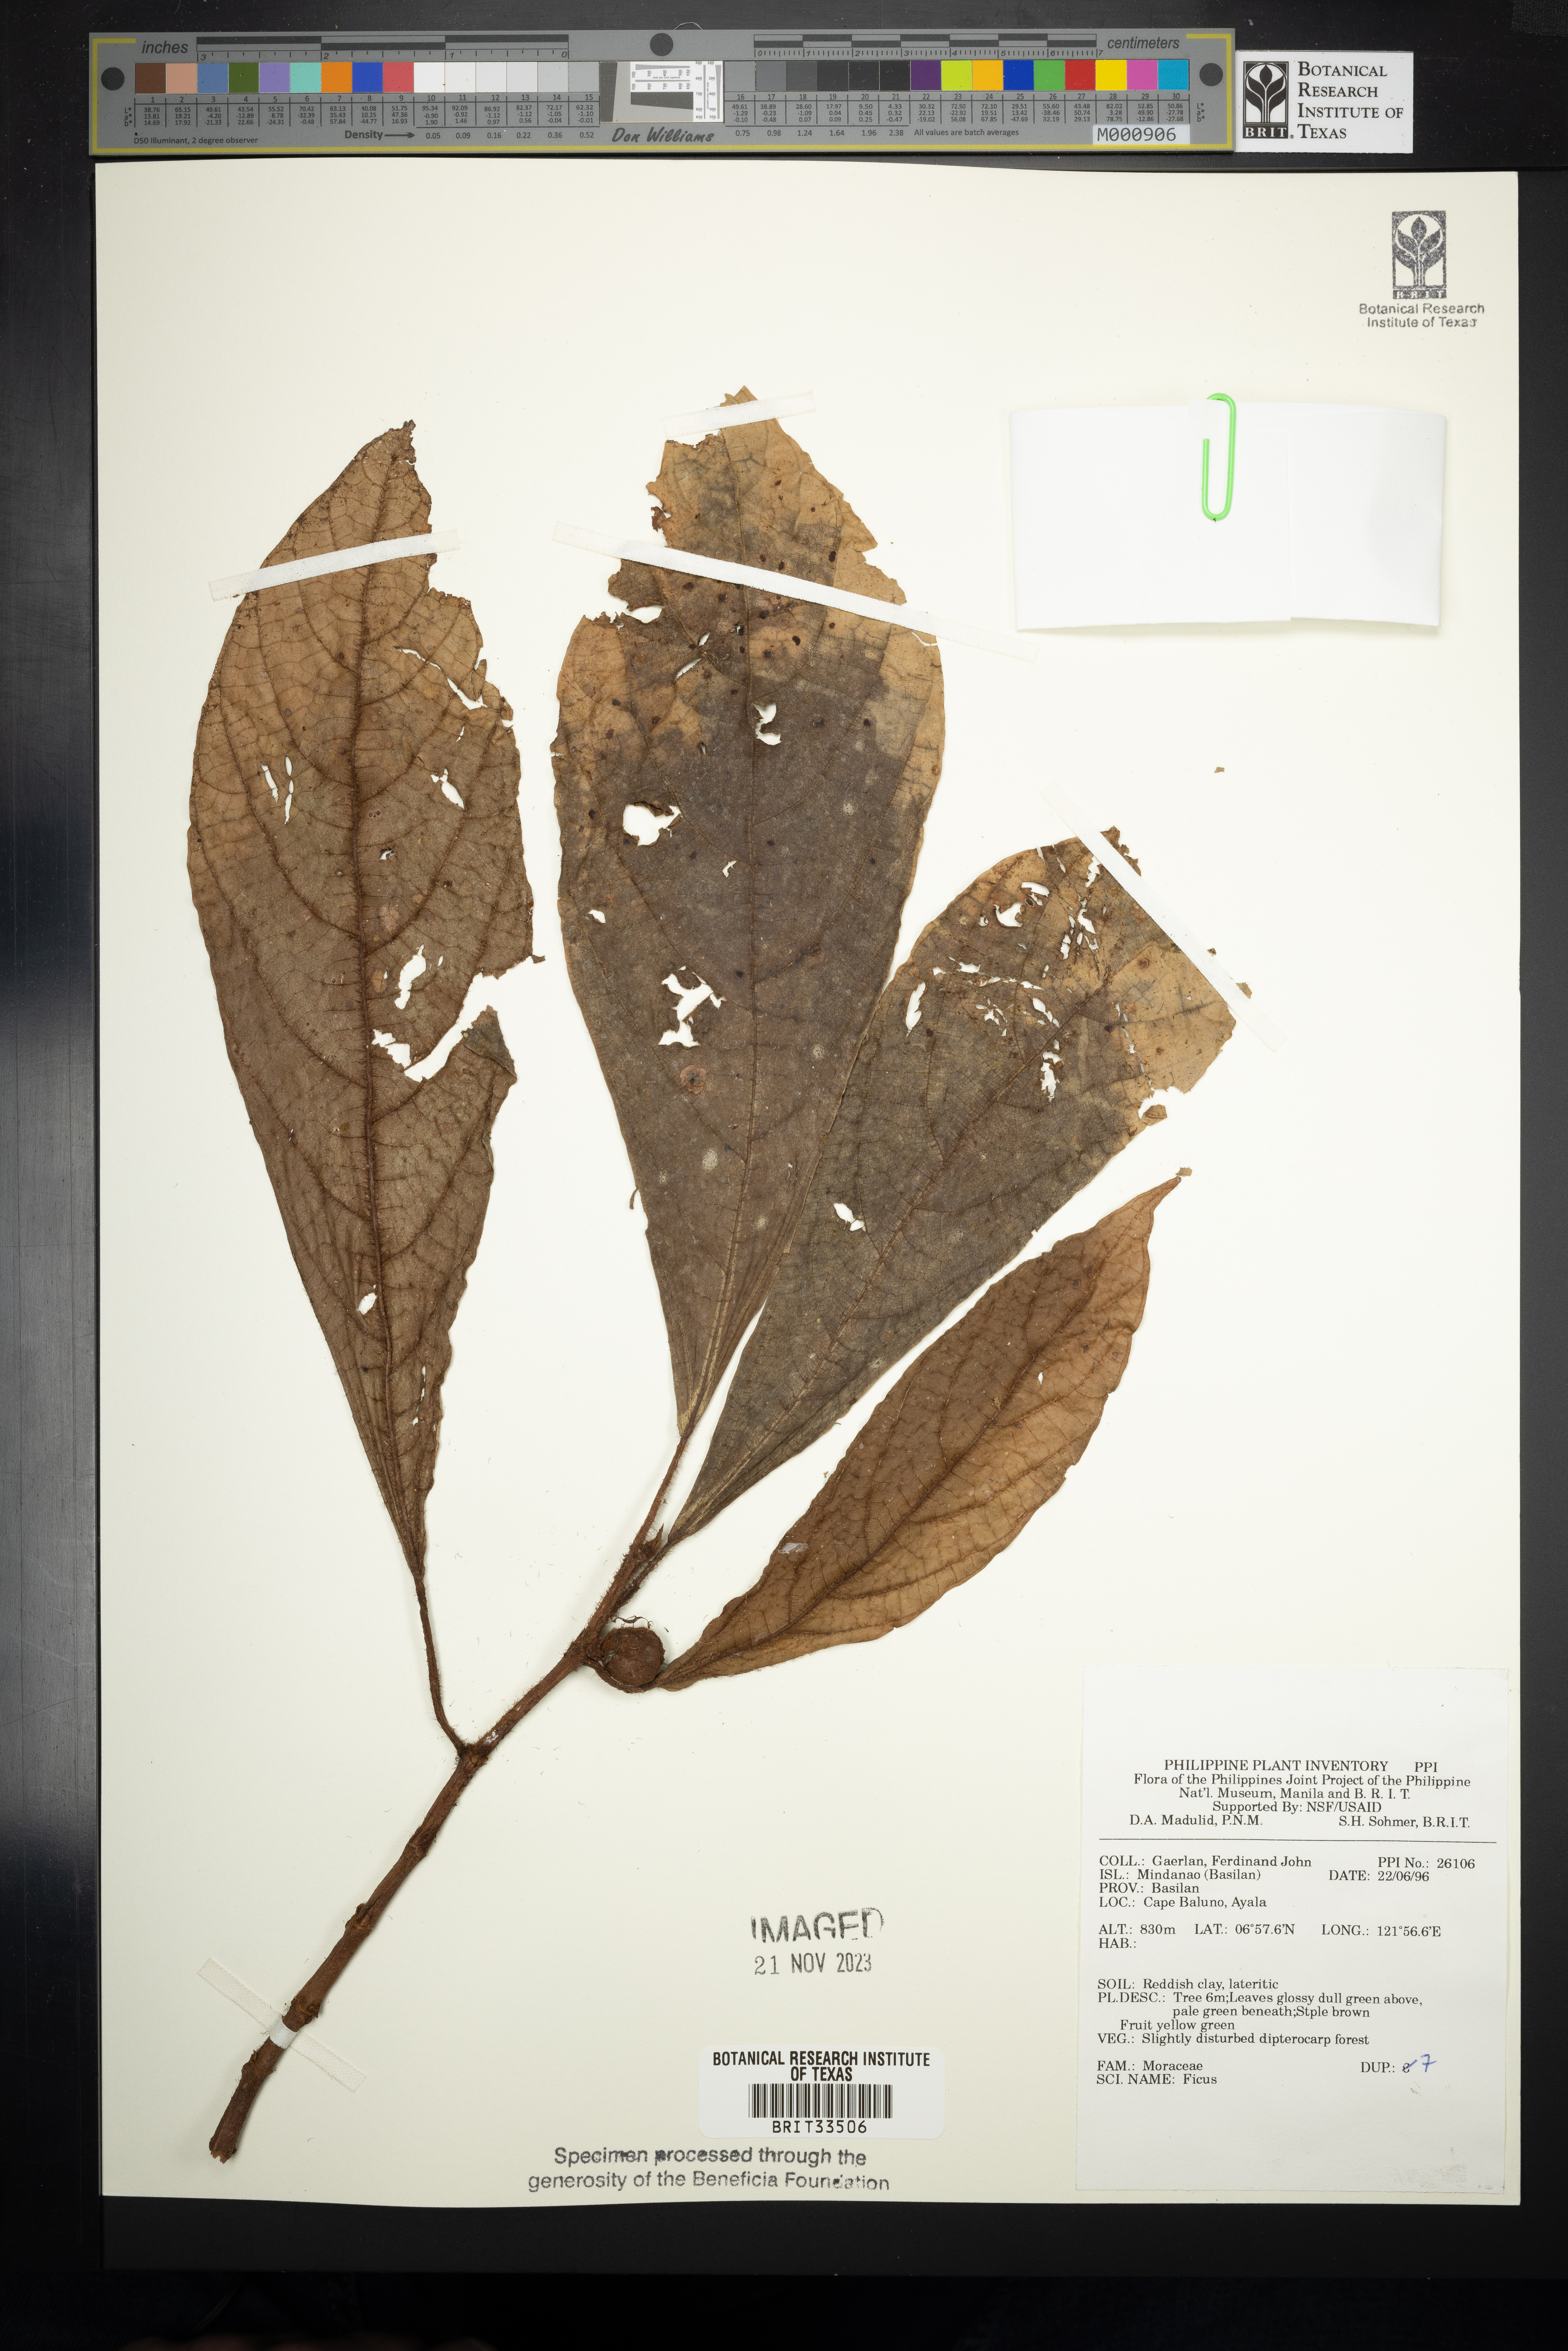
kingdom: Plantae
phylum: Tracheophyta
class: Magnoliopsida
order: Rosales
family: Moraceae
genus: Ficus
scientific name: Ficus
